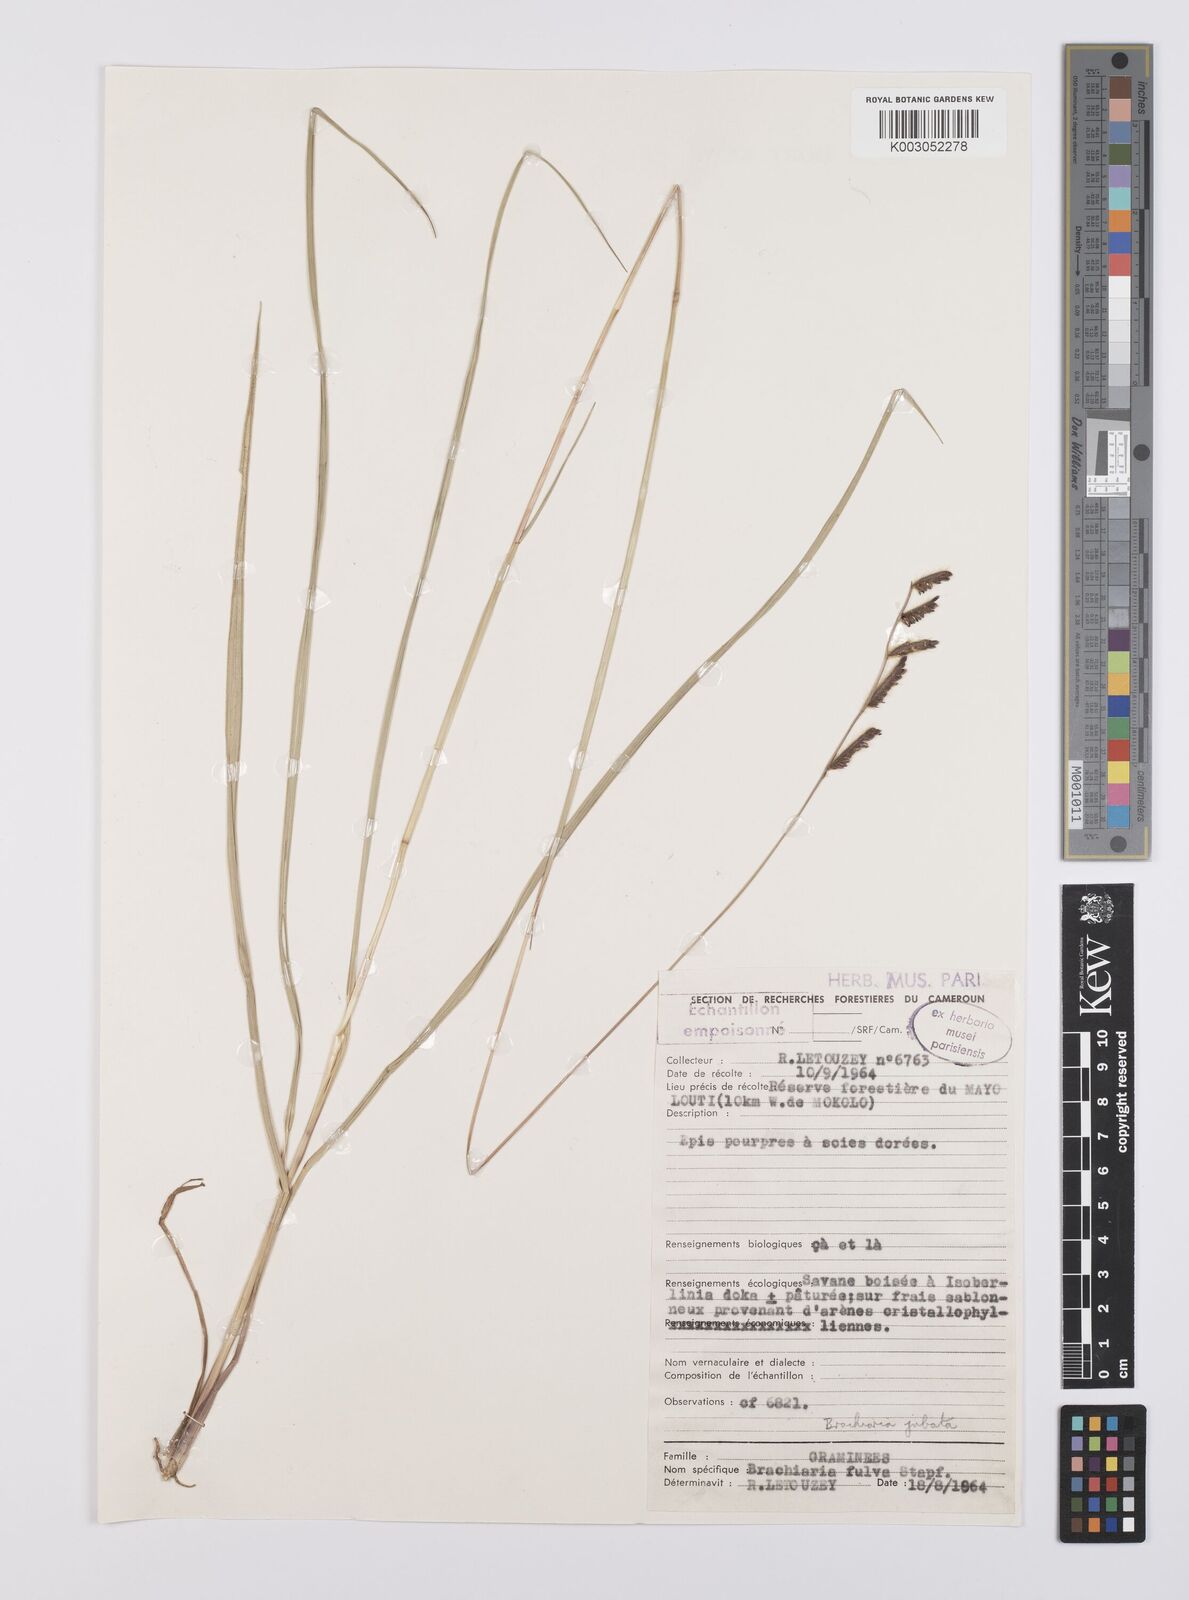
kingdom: Plantae
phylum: Tracheophyta
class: Liliopsida
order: Poales
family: Poaceae
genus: Urochloa
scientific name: Urochloa jubata
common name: Buffalograss
